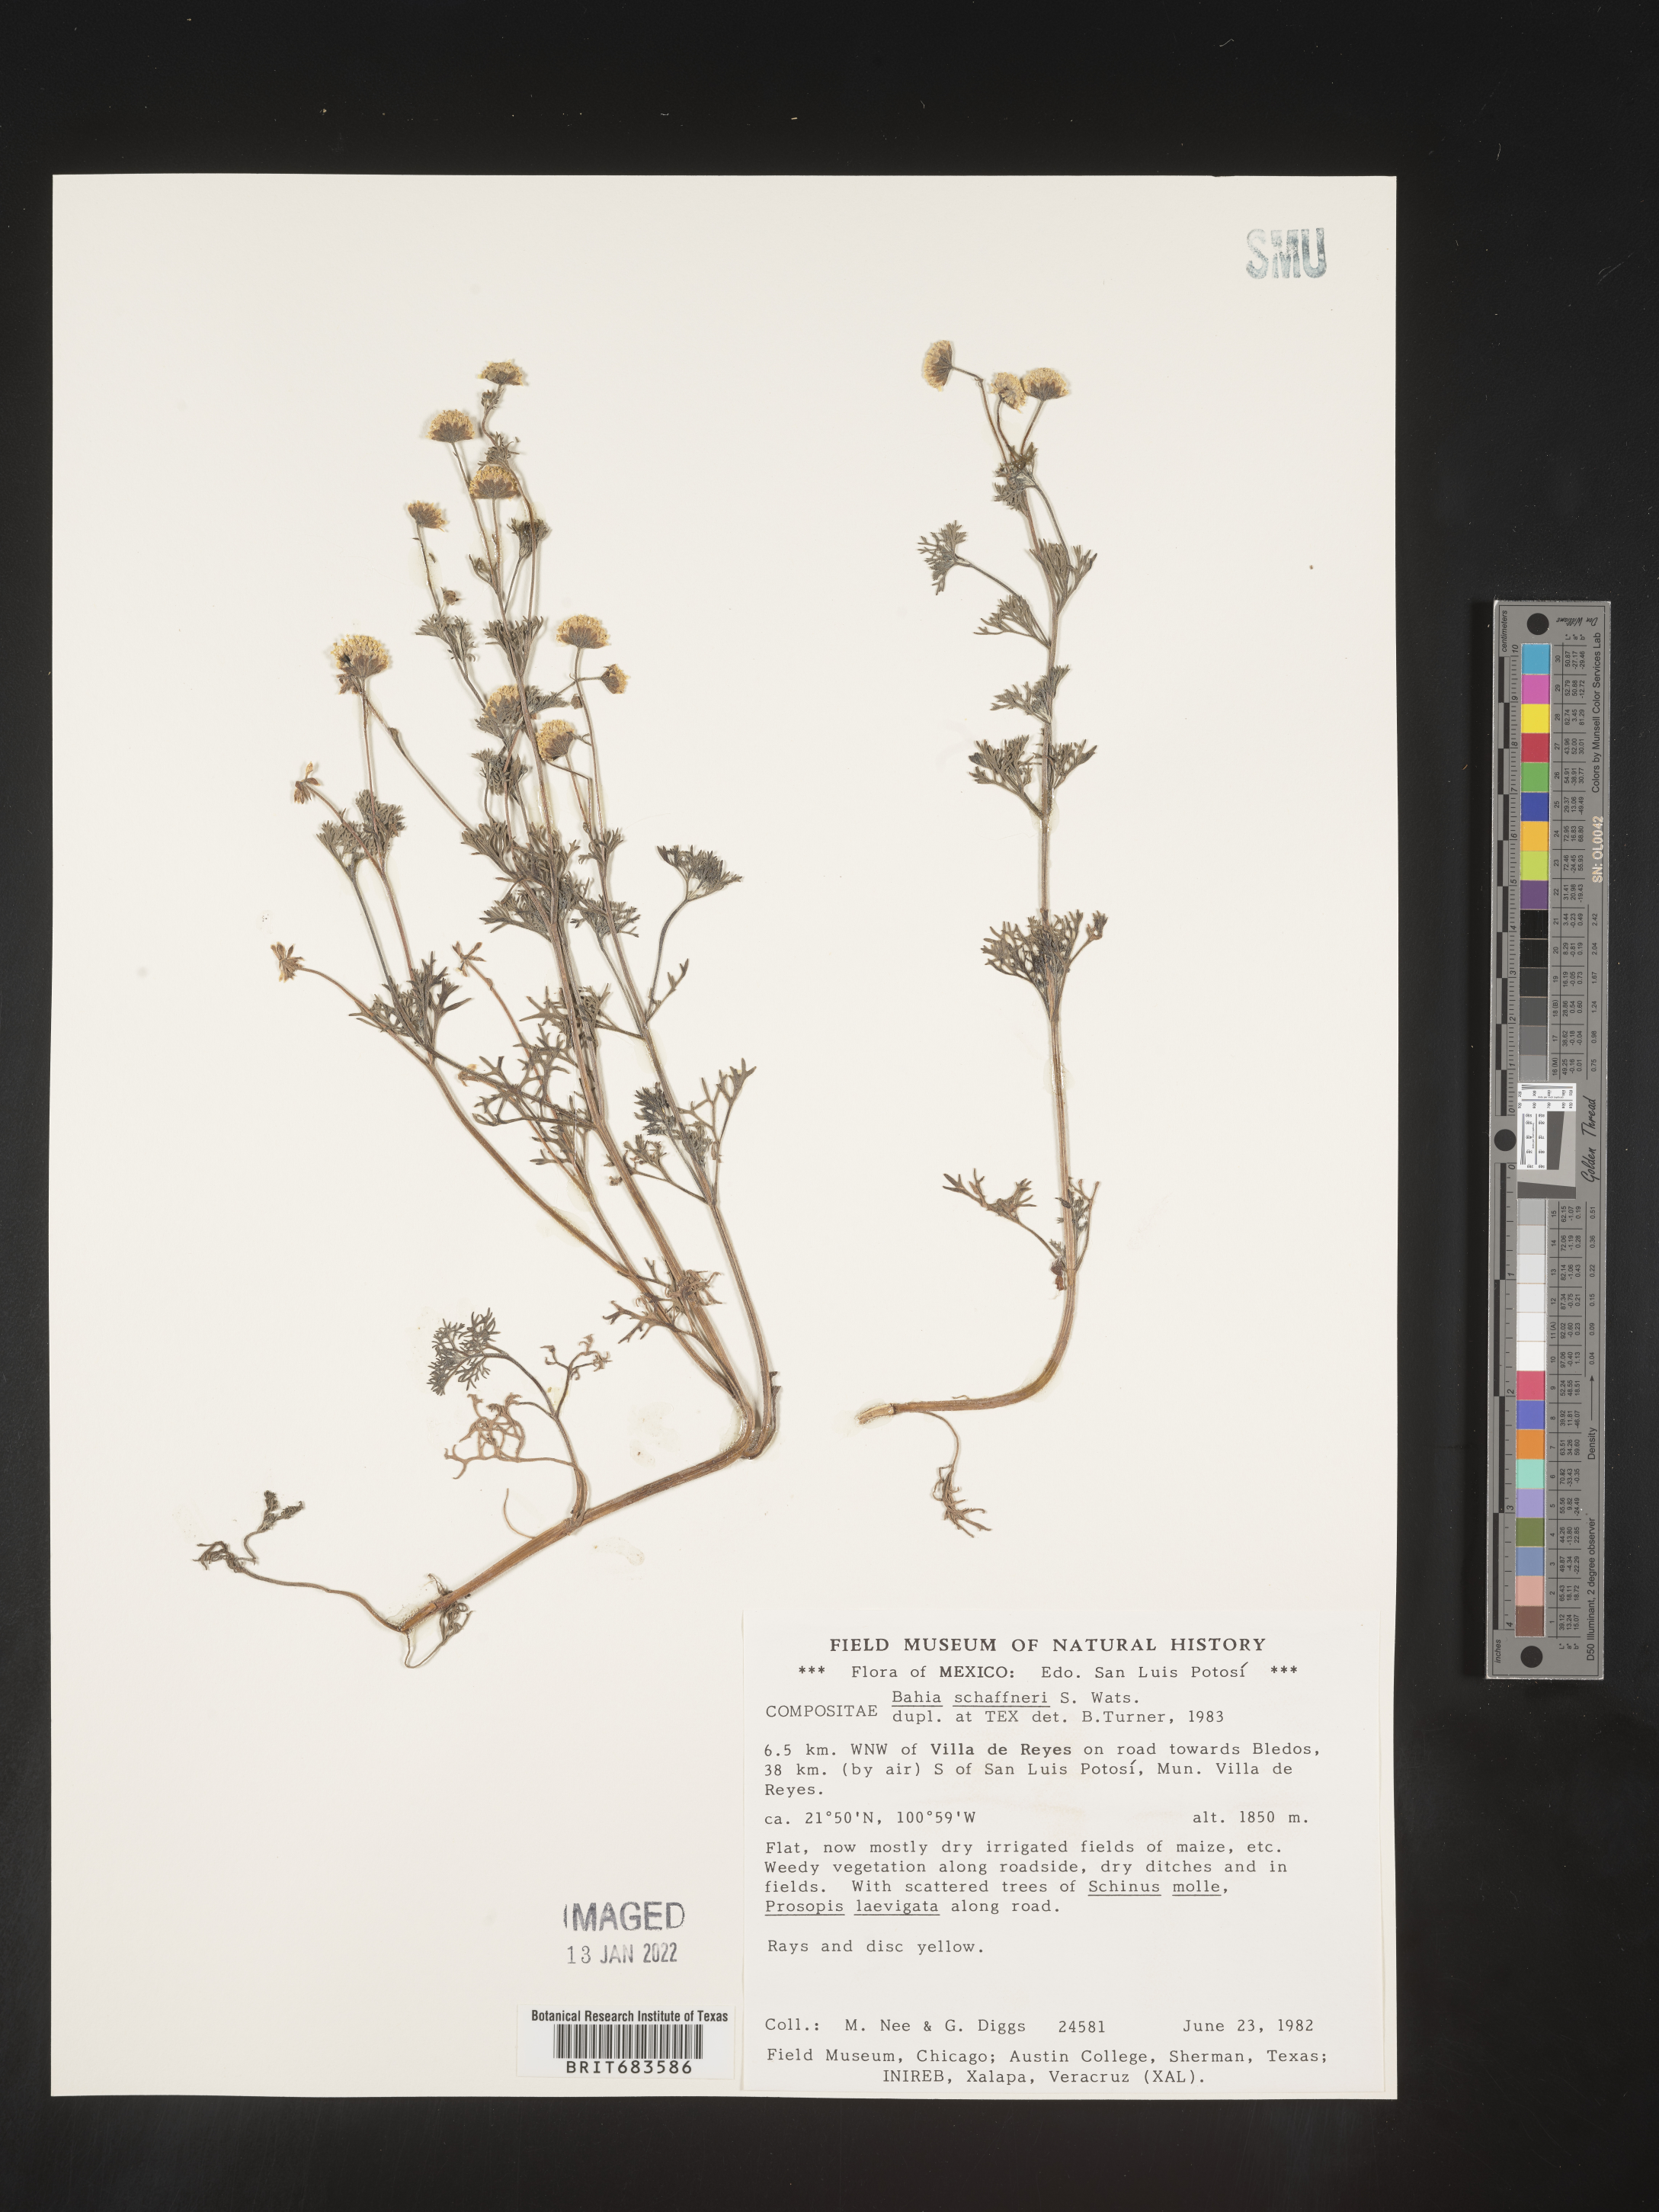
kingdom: Plantae
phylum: Tracheophyta
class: Magnoliopsida
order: Asterales
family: Asteraceae
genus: Bahia
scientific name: Bahia
